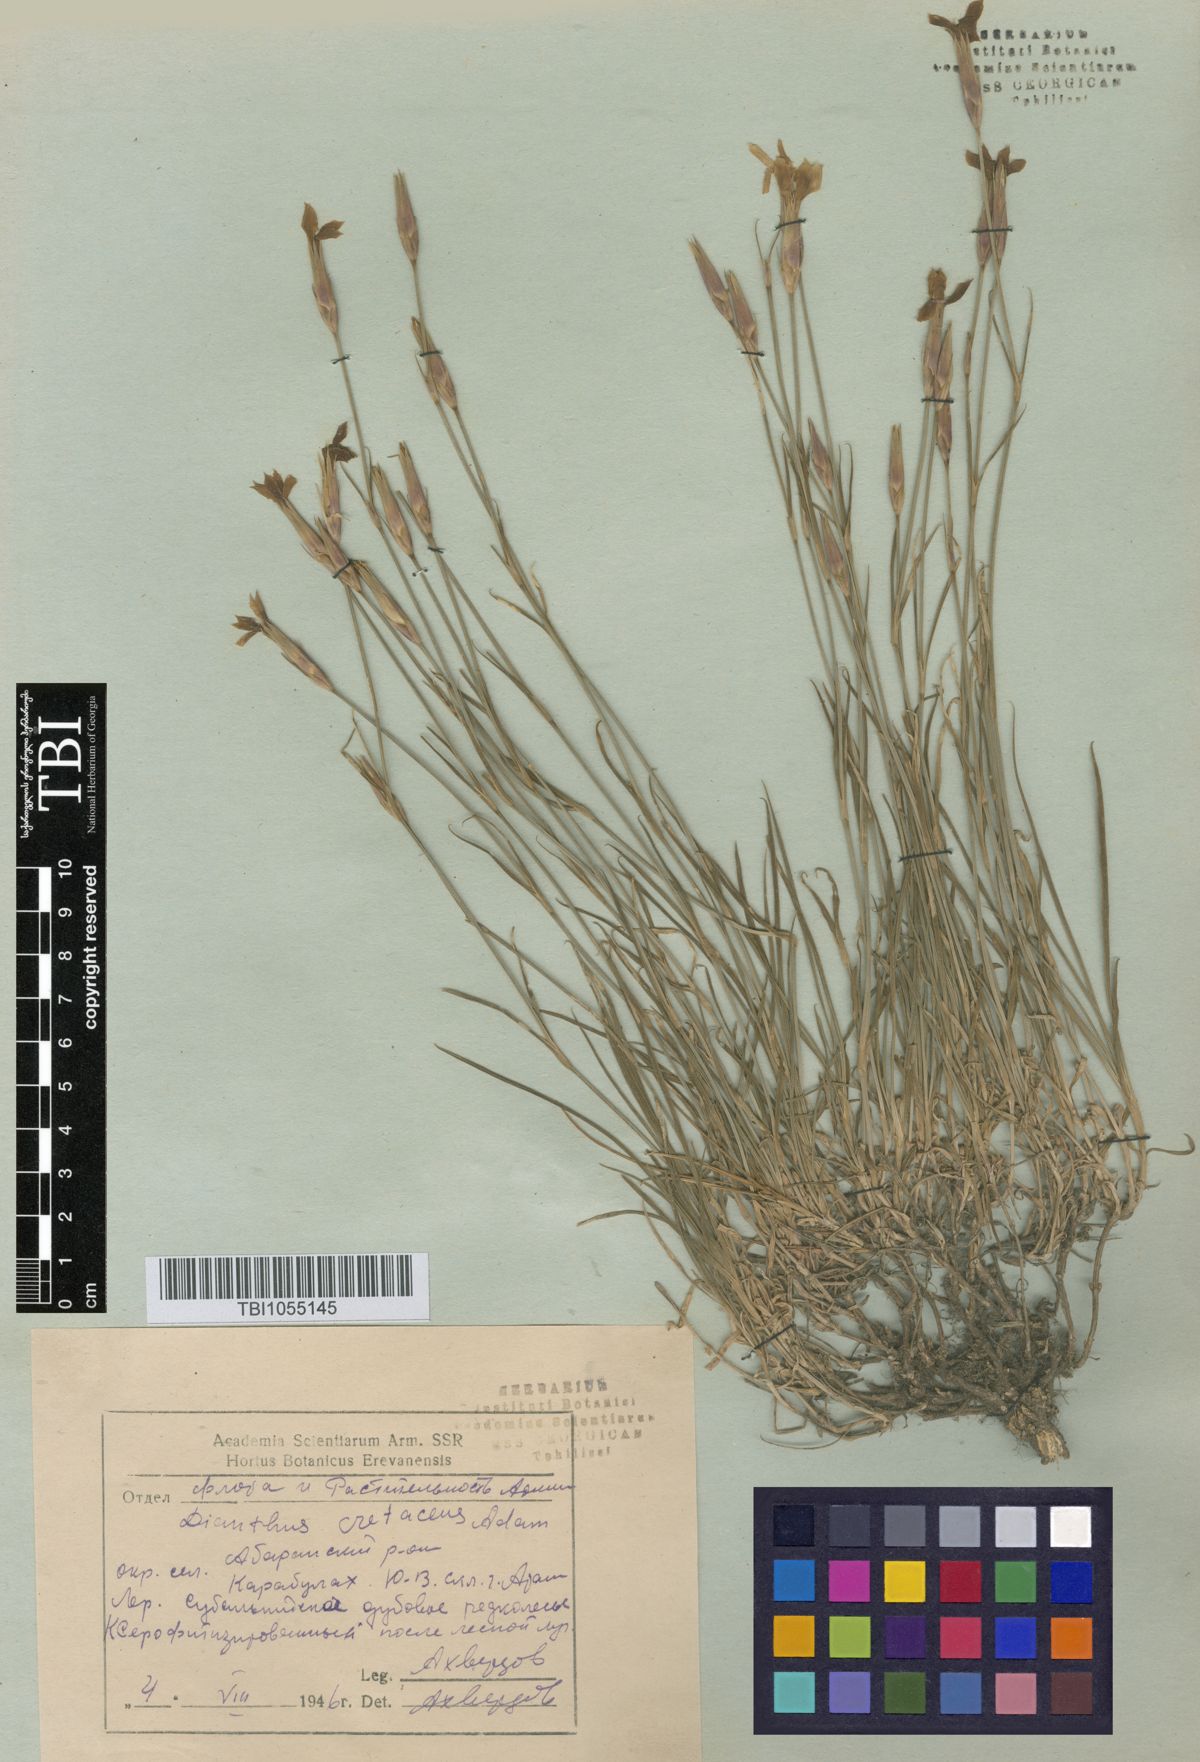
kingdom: Plantae
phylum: Tracheophyta
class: Magnoliopsida
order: Caryophyllales
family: Caryophyllaceae
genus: Dianthus
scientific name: Dianthus cretaceus
